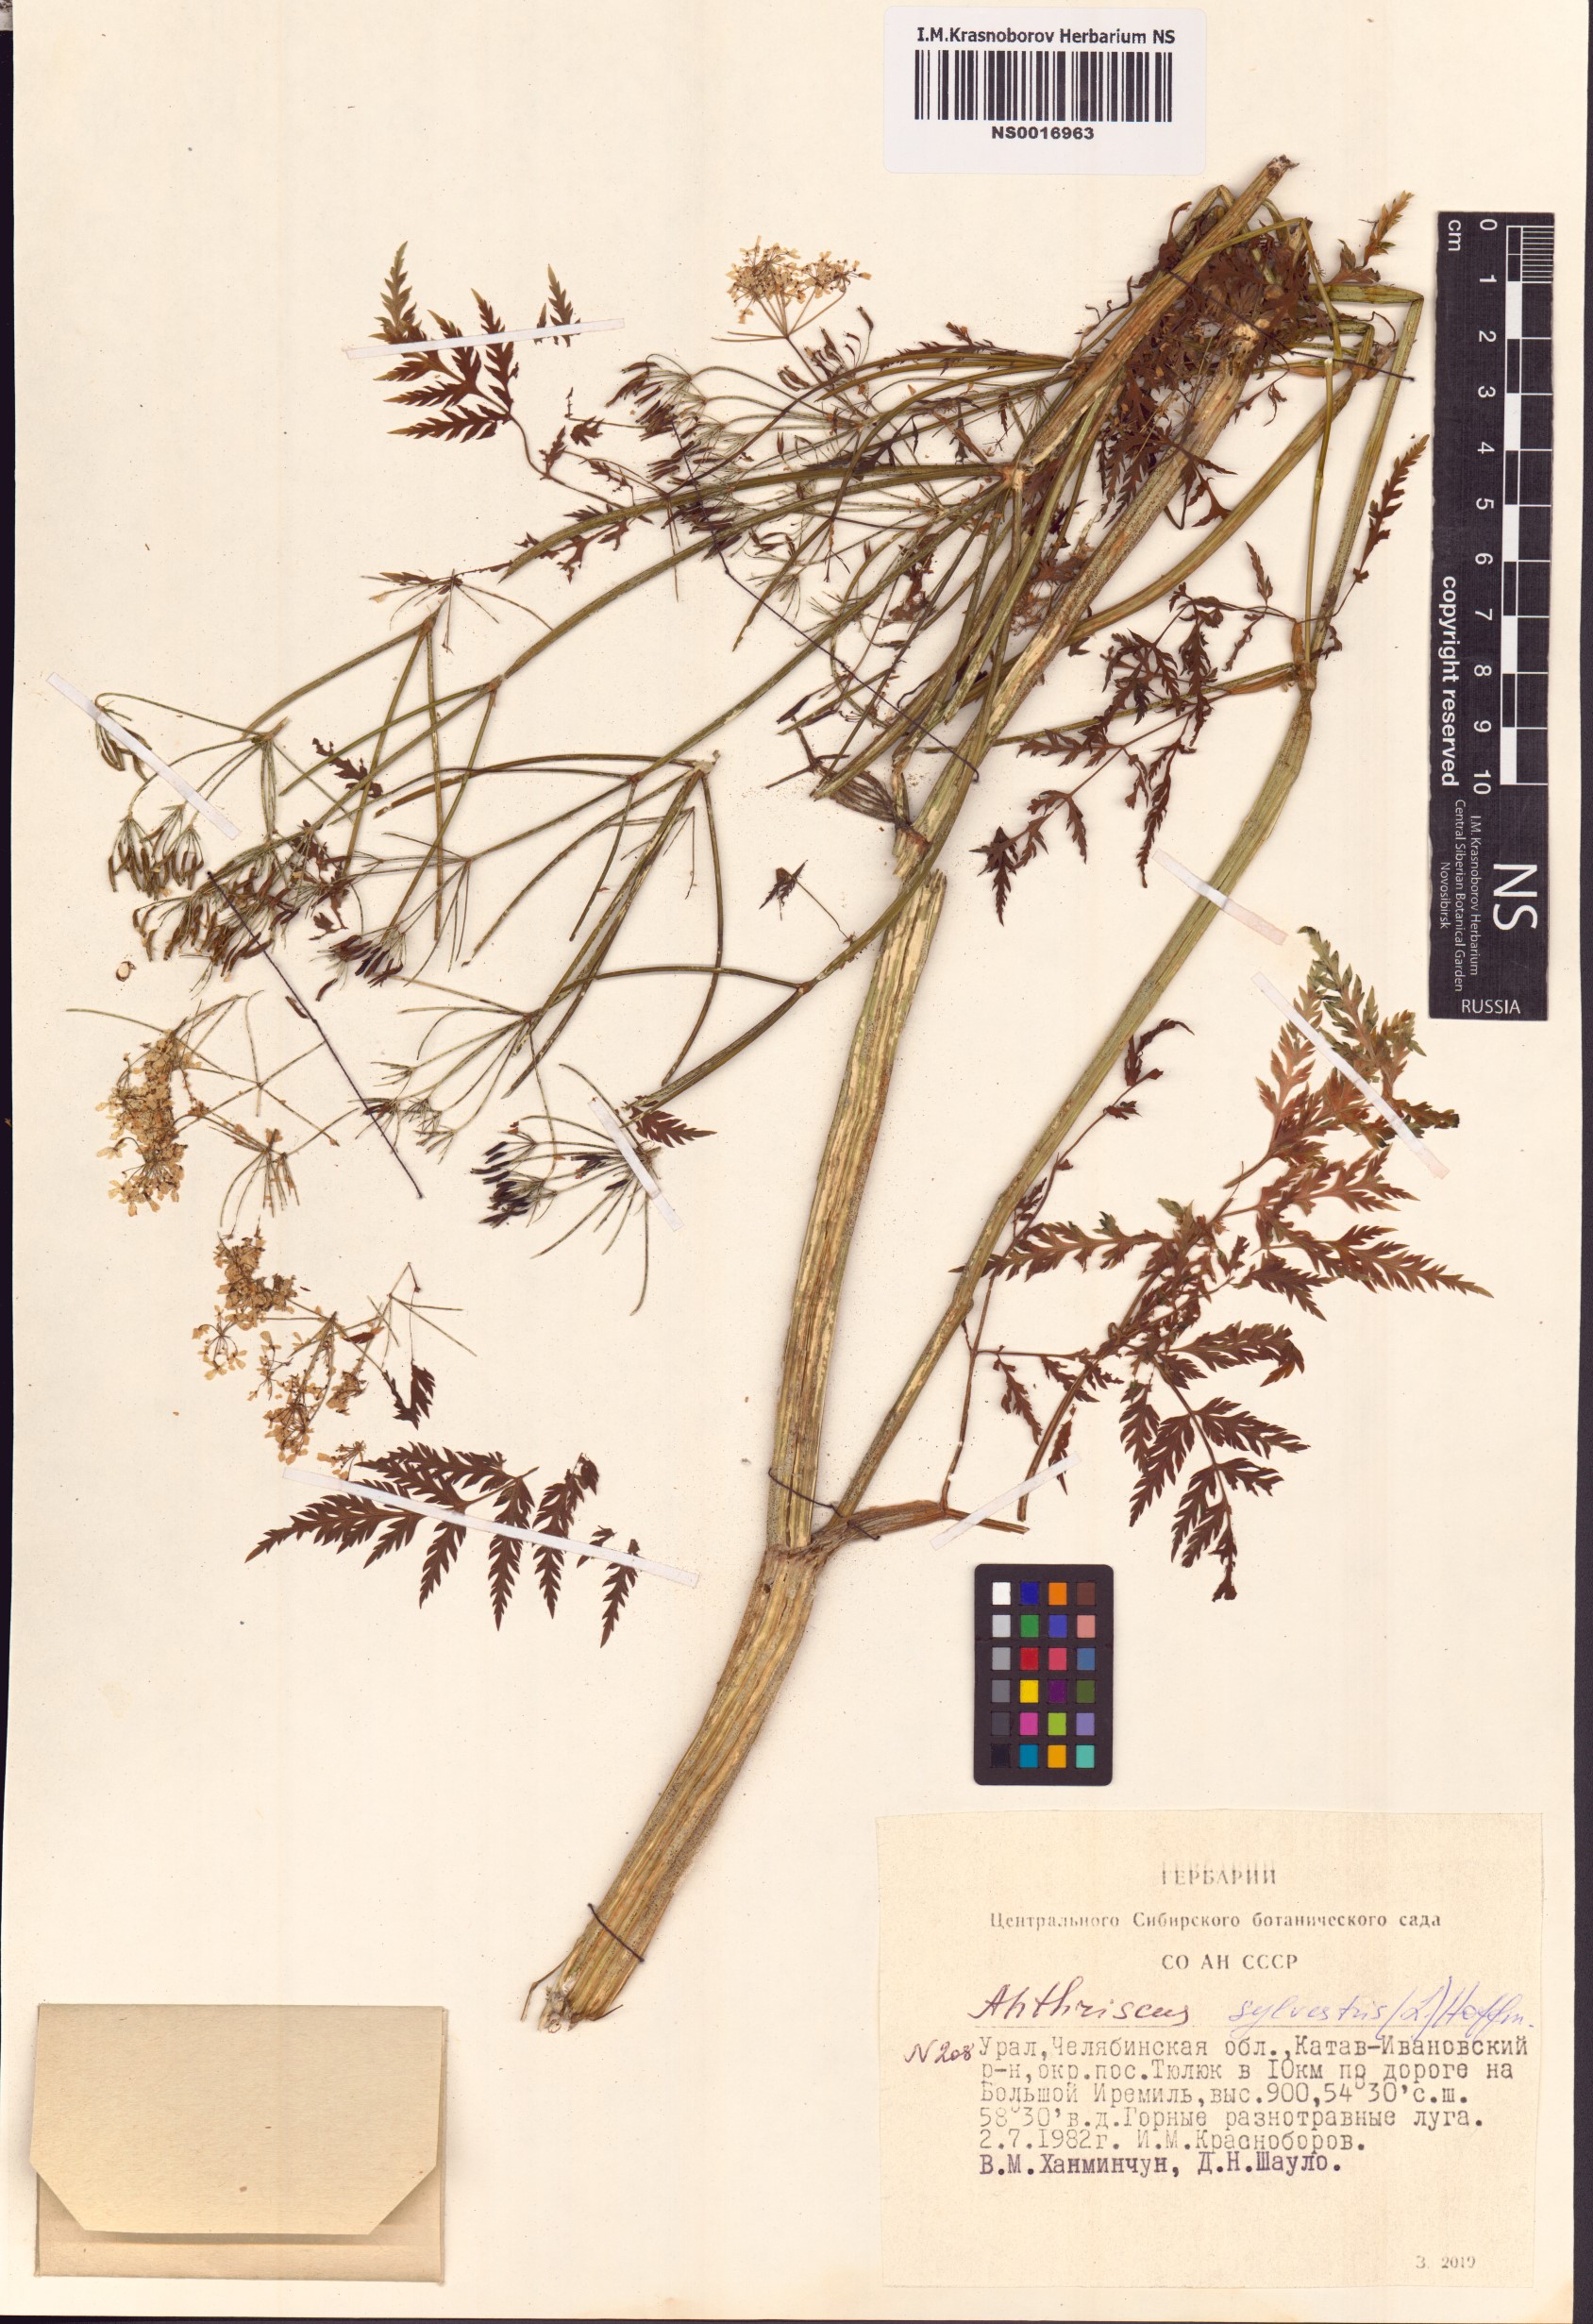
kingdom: Plantae
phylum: Tracheophyta
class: Magnoliopsida
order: Apiales
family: Apiaceae
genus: Anthriscus
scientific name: Anthriscus sylvestris
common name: Cow parsley
